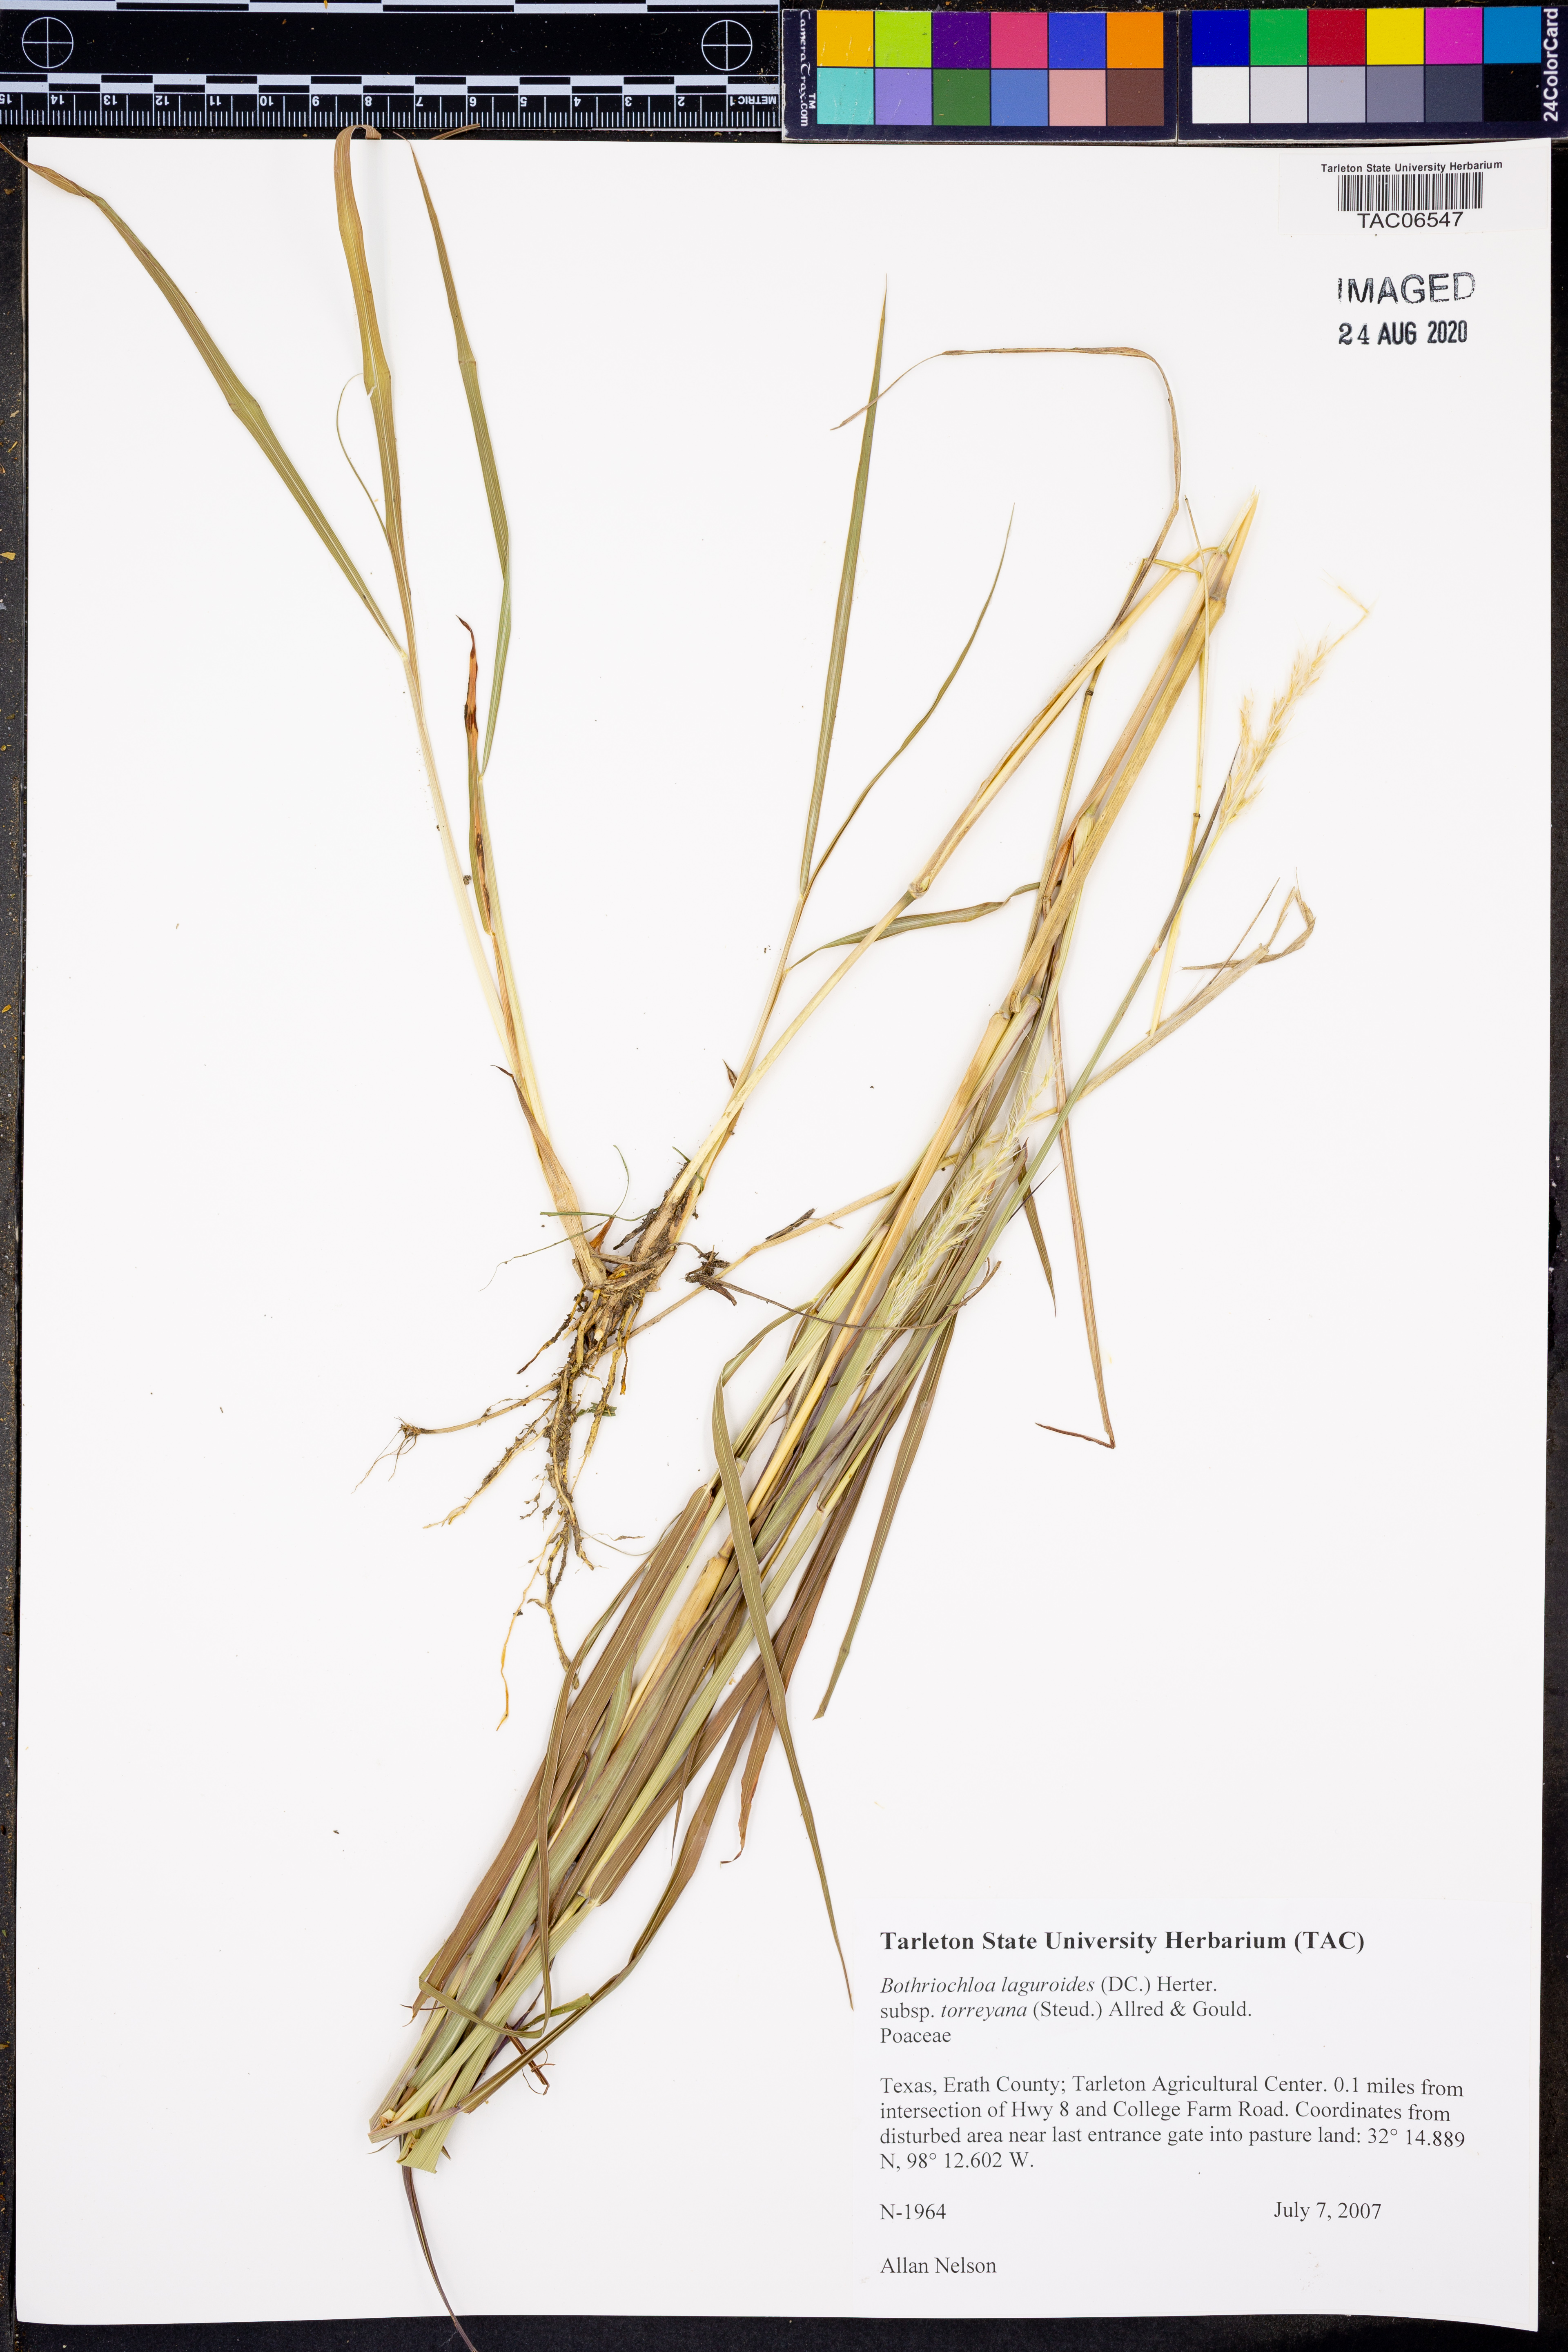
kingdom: Plantae
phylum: Tracheophyta
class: Liliopsida
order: Poales
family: Poaceae
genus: Bothriochloa
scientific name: Bothriochloa torreyana
